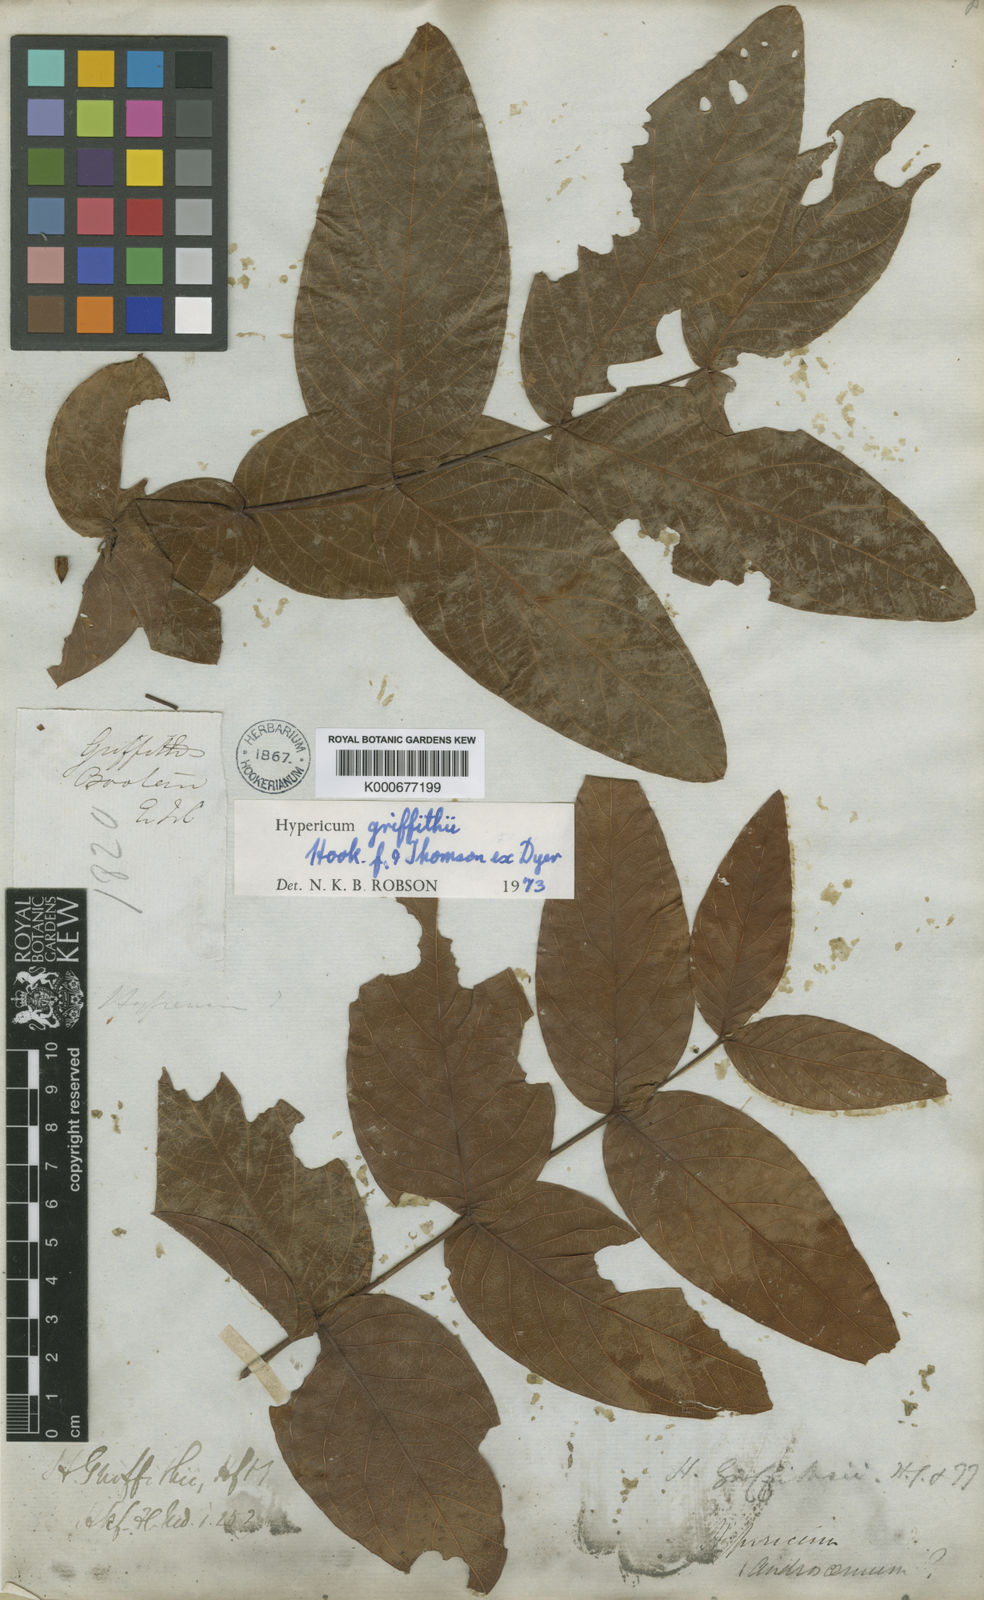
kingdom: Plantae
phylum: Tracheophyta
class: Magnoliopsida
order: Malpighiales
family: Hypericaceae
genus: Hypericum
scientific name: Hypericum griffithii
